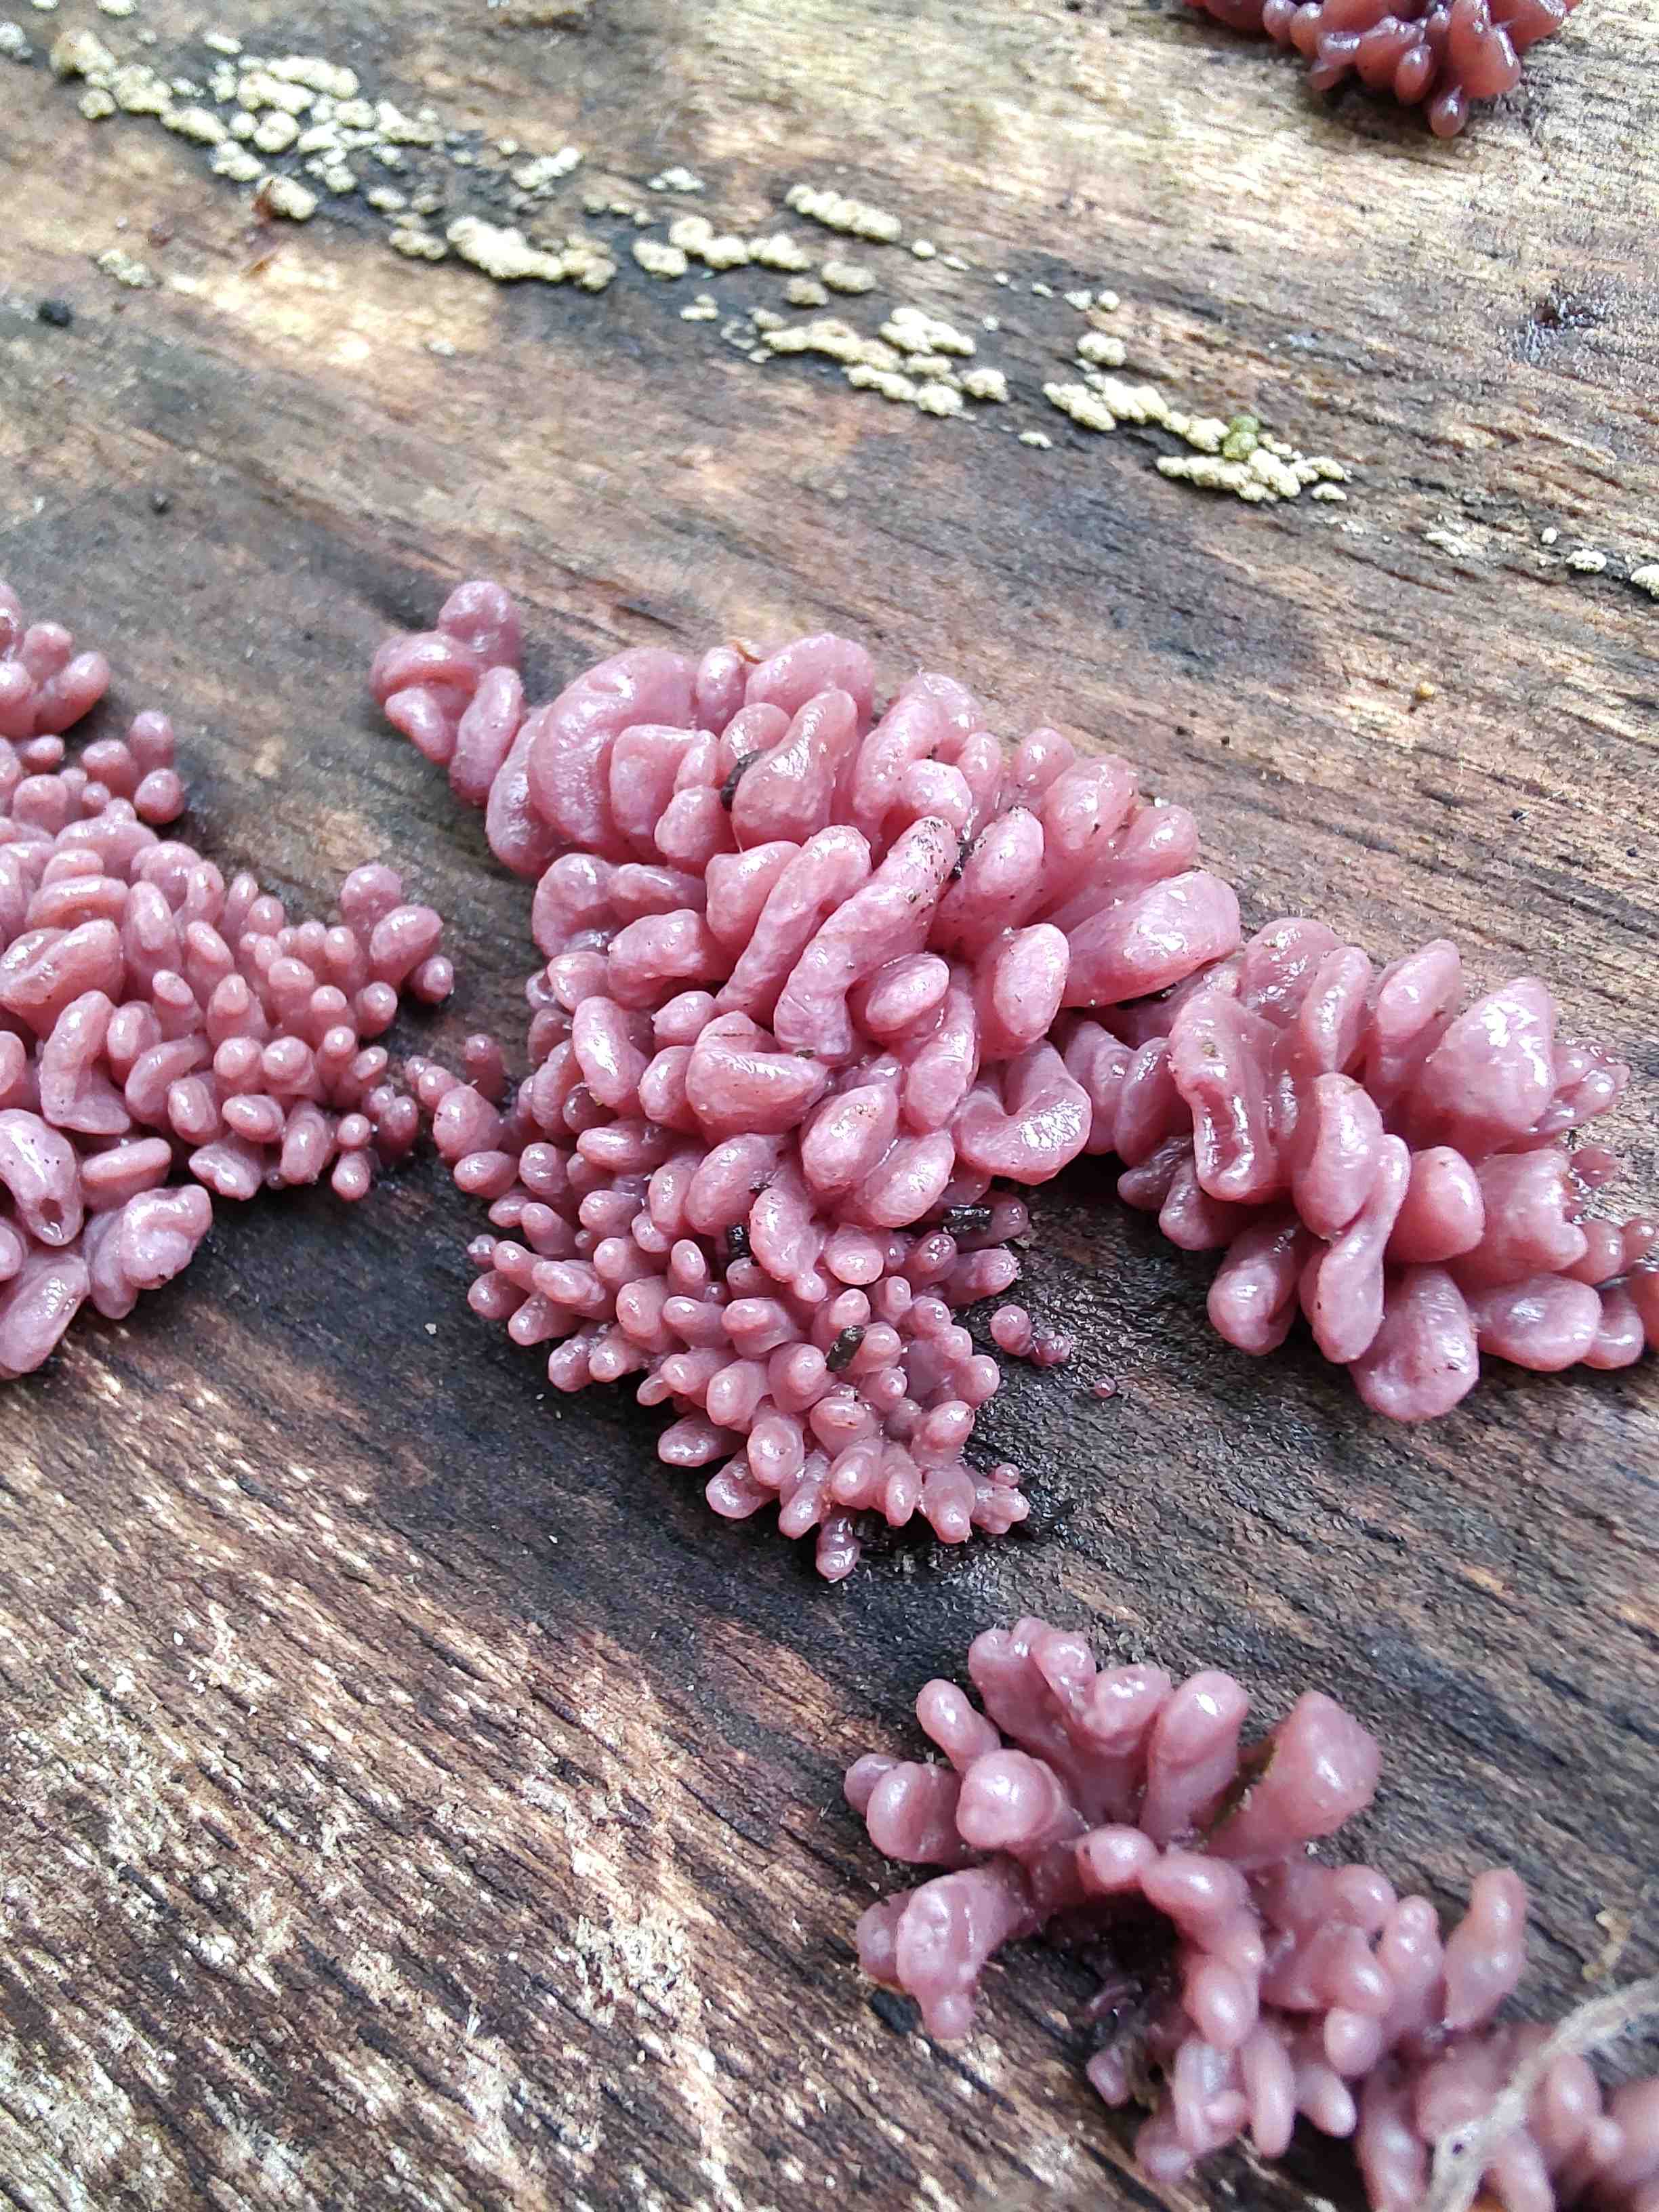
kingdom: Fungi
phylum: Ascomycota
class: Leotiomycetes
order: Helotiales
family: Gelatinodiscaceae
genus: Ascocoryne
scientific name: Ascocoryne sarcoides
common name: rødlilla sejskive
